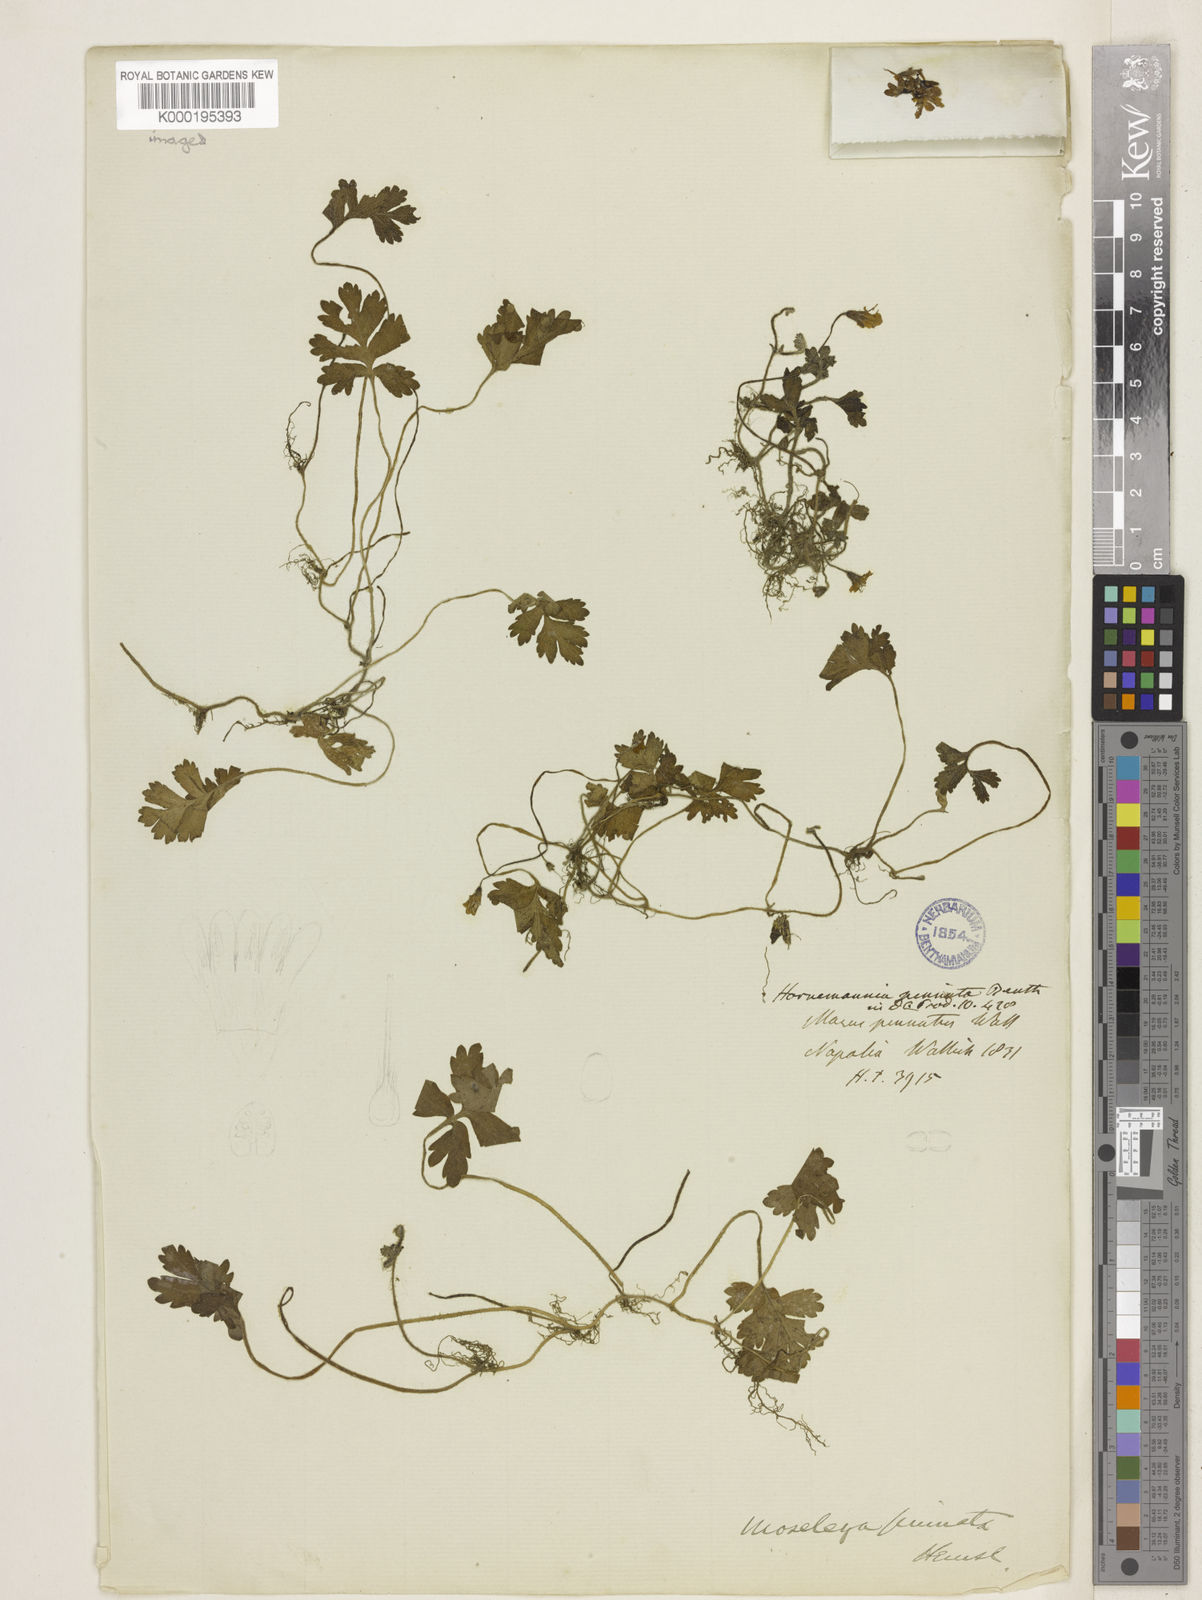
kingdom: Plantae
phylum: Tracheophyta
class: Magnoliopsida
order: Lamiales
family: Plantaginaceae
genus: Ellisiophyllum
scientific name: Ellisiophyllum pinnatum
